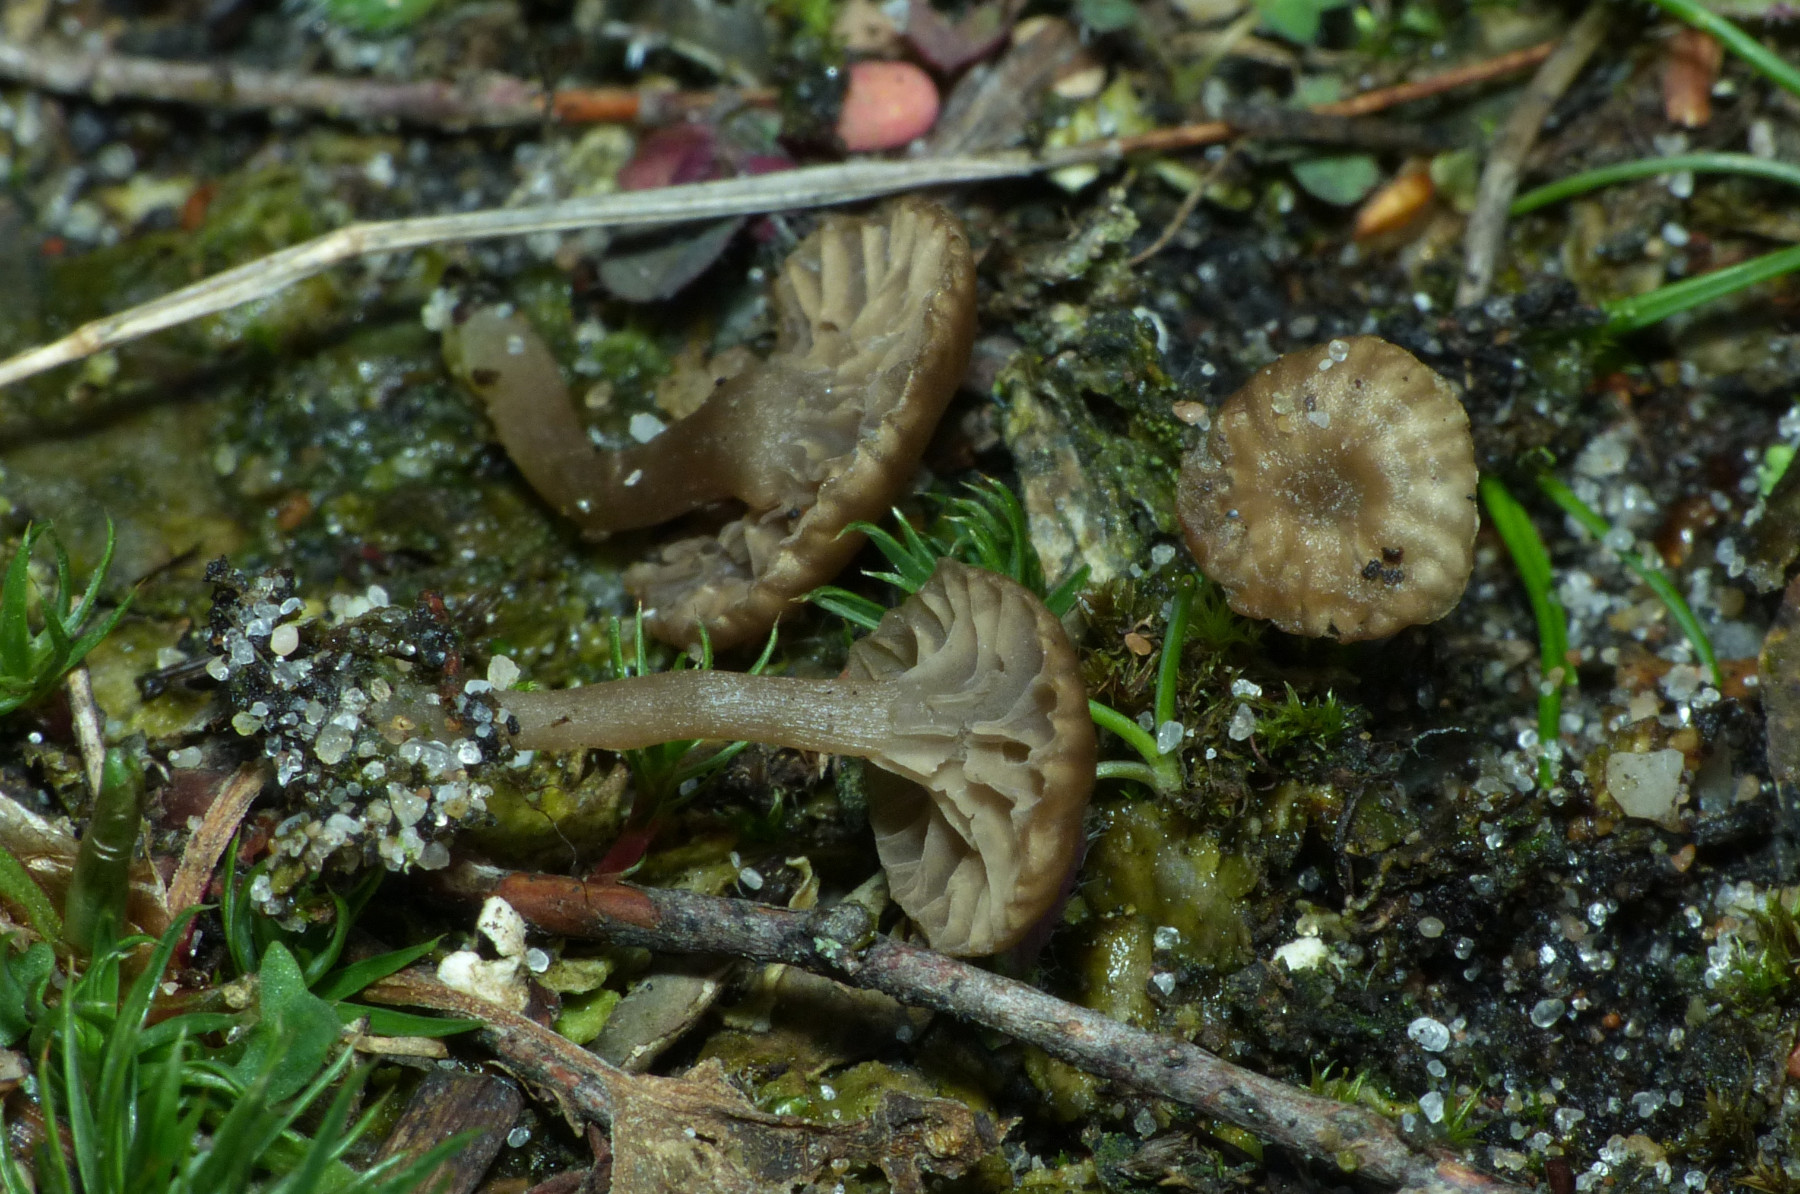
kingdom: Fungi
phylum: Basidiomycota
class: Agaricomycetes
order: Agaricales
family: Hygrophoraceae
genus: Arrhenia
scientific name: Arrhenia peltigerina
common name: skjoldlav-fontænehat
